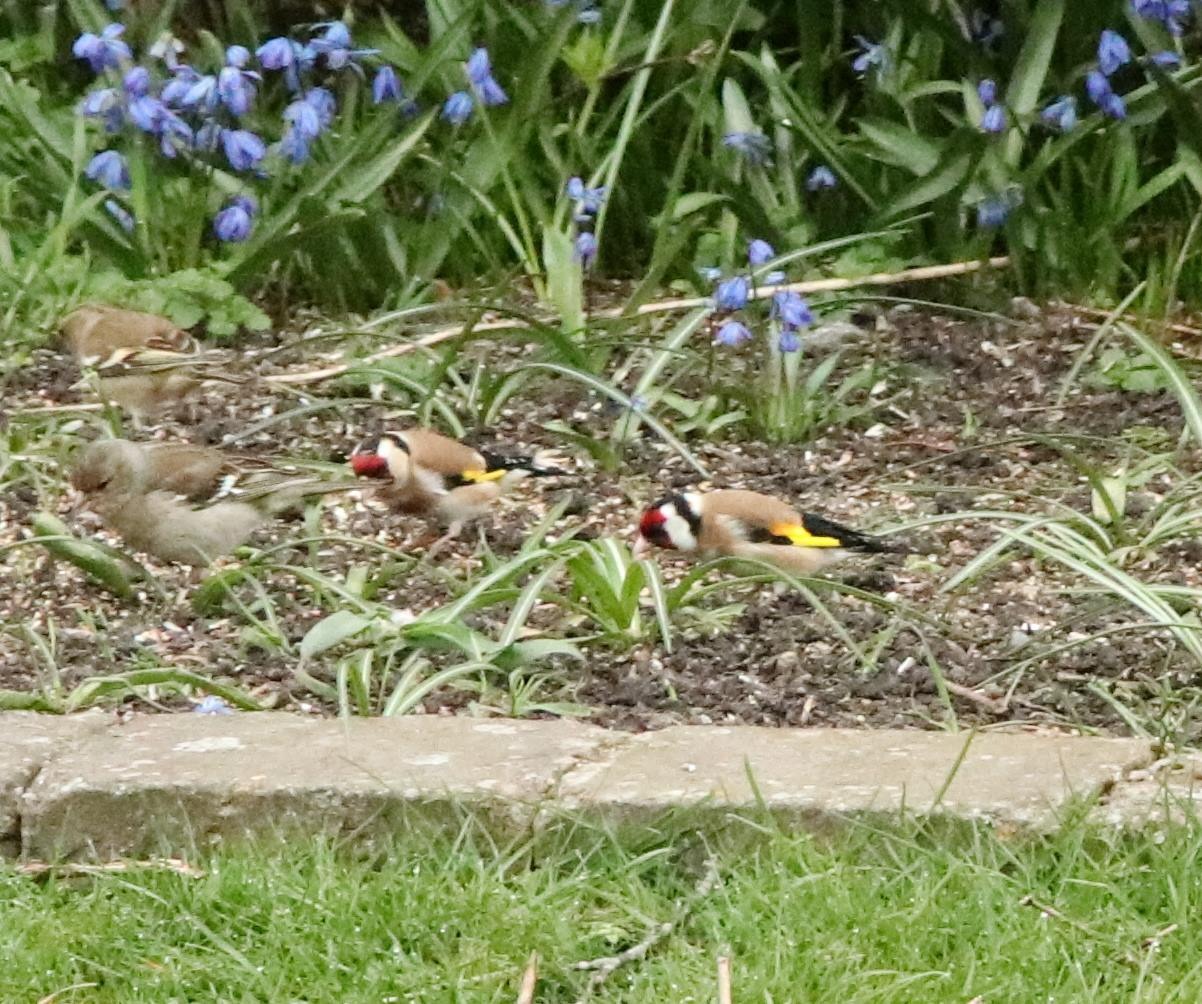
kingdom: Animalia
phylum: Chordata
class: Aves
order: Passeriformes
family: Fringillidae
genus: Carduelis
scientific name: Carduelis carduelis
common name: Stillits
